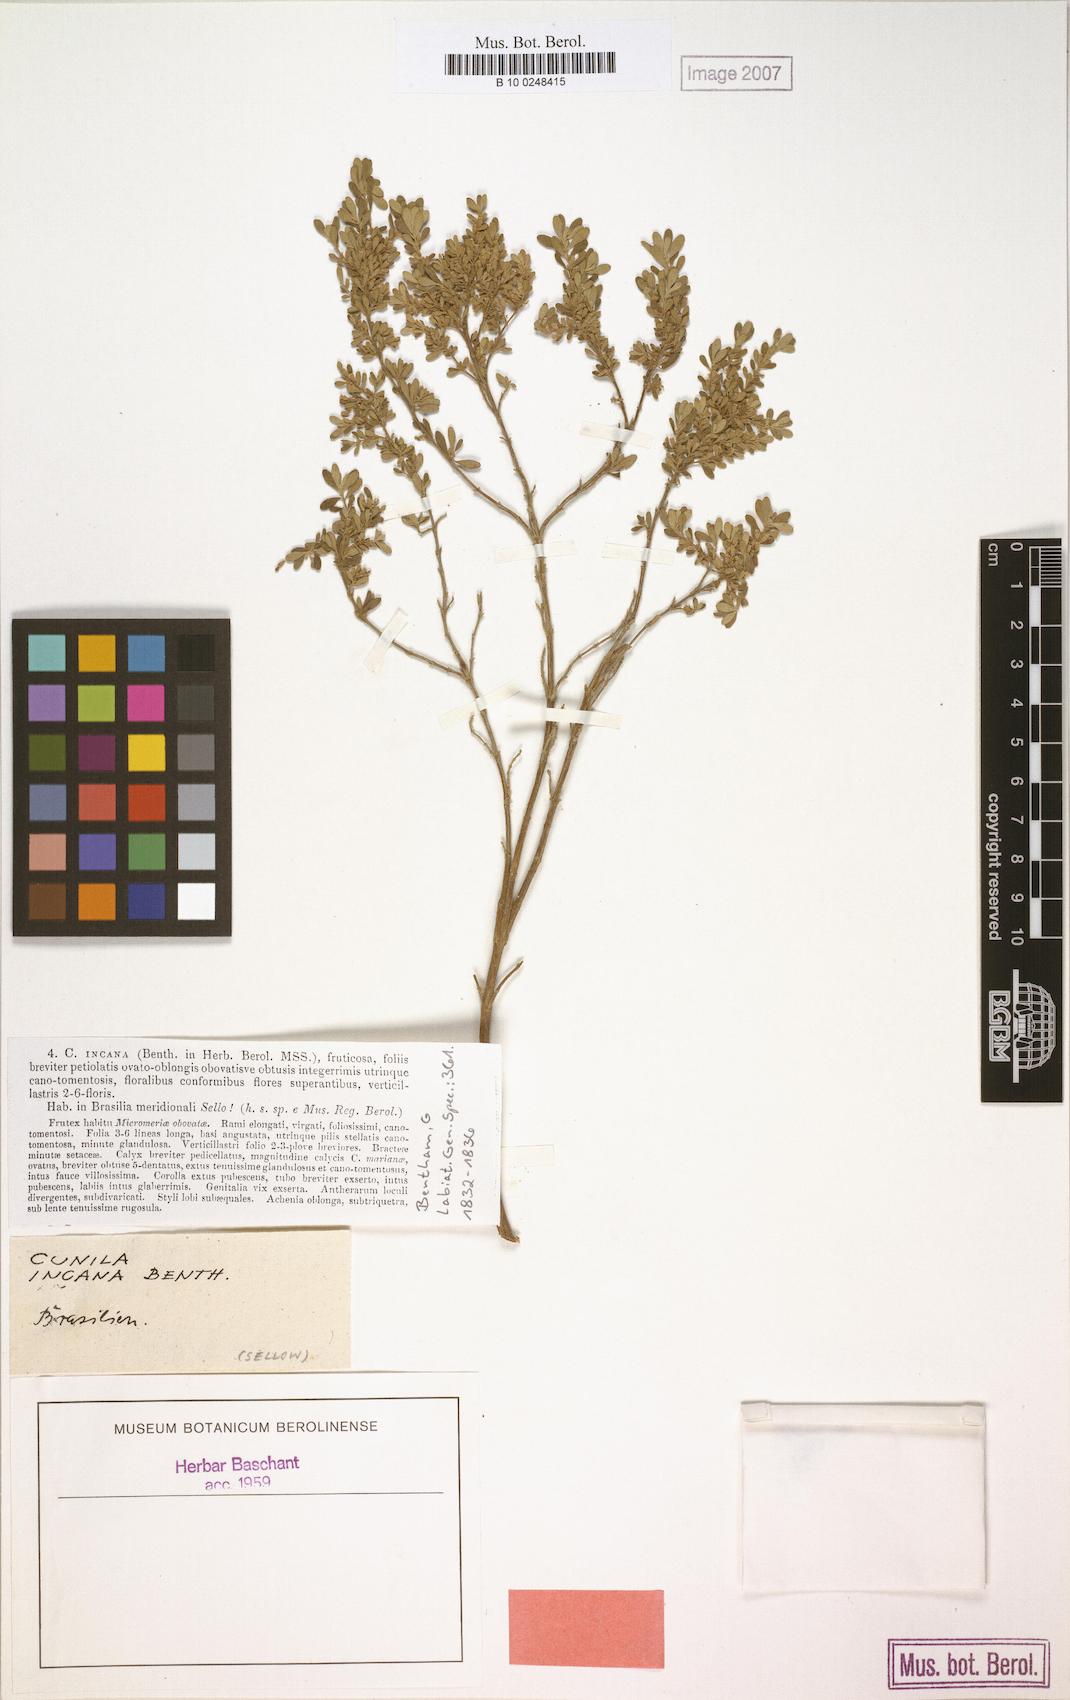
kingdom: Plantae
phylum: Tracheophyta
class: Magnoliopsida
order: Lamiales
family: Lamiaceae
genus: Cunila
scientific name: Cunila incana
